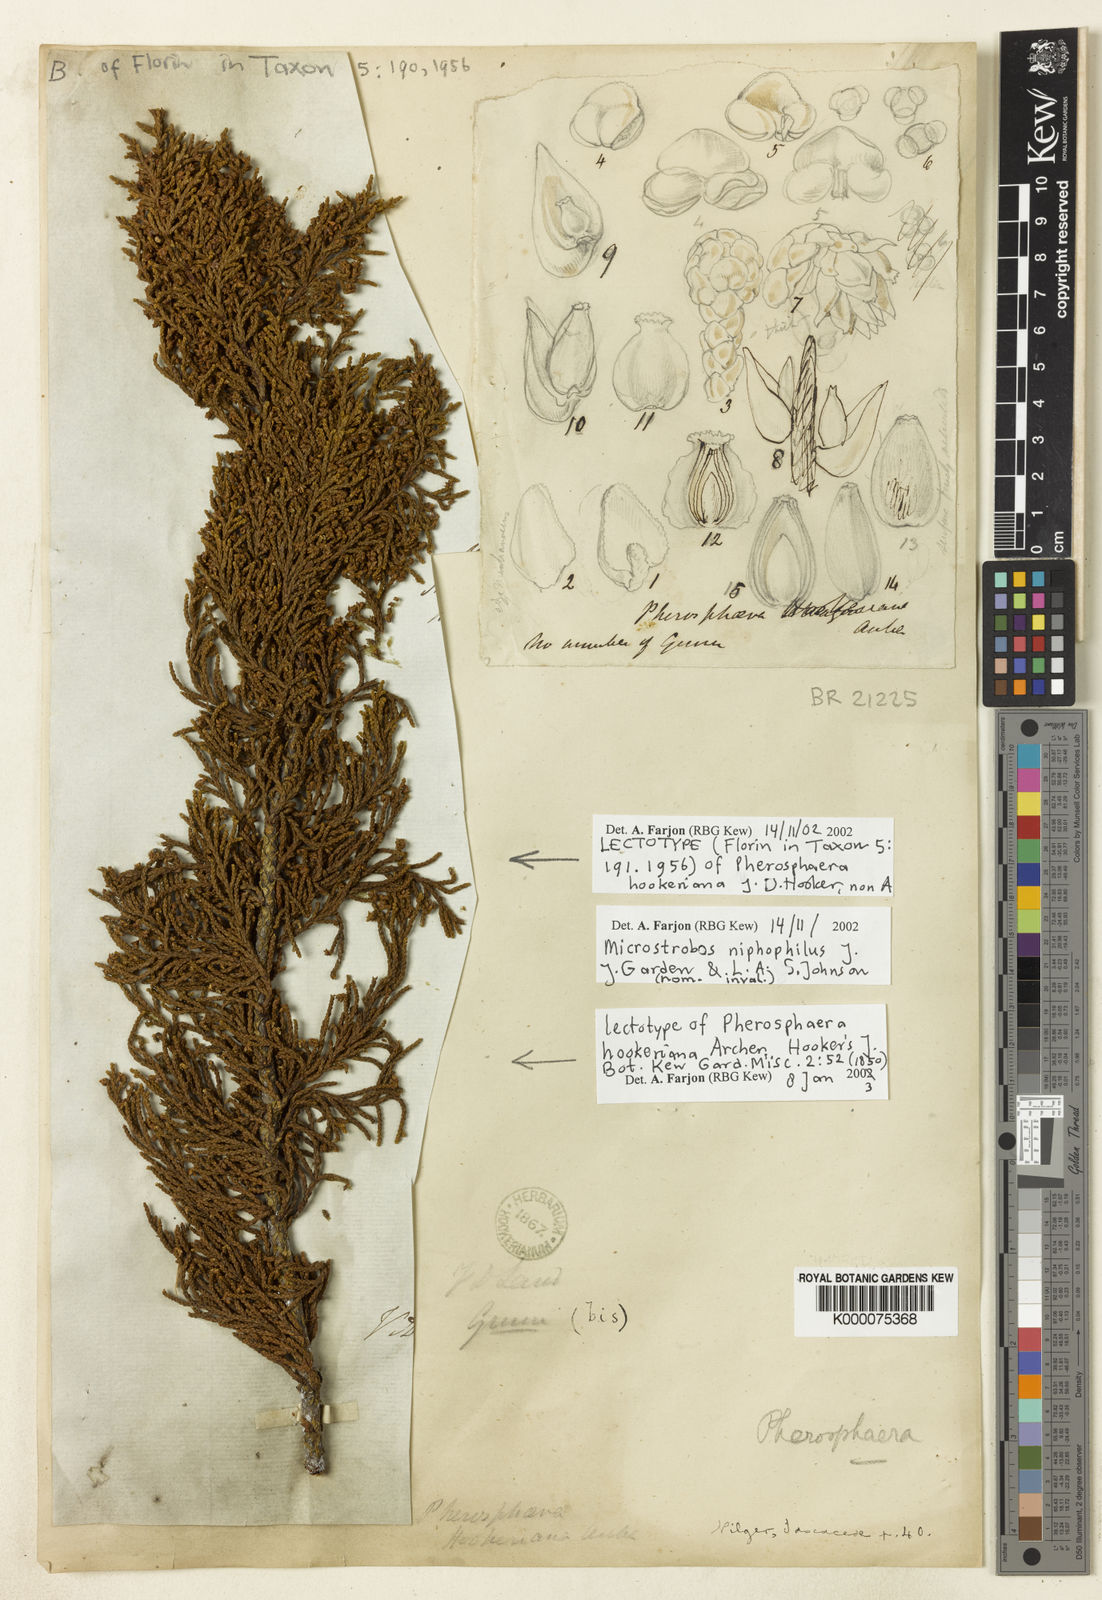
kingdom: Plantae
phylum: Tracheophyta
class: Pinopsida
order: Pinales
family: Podocarpaceae
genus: Pherosphaera
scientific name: Pherosphaera hookeriana
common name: Mount mawson pine
